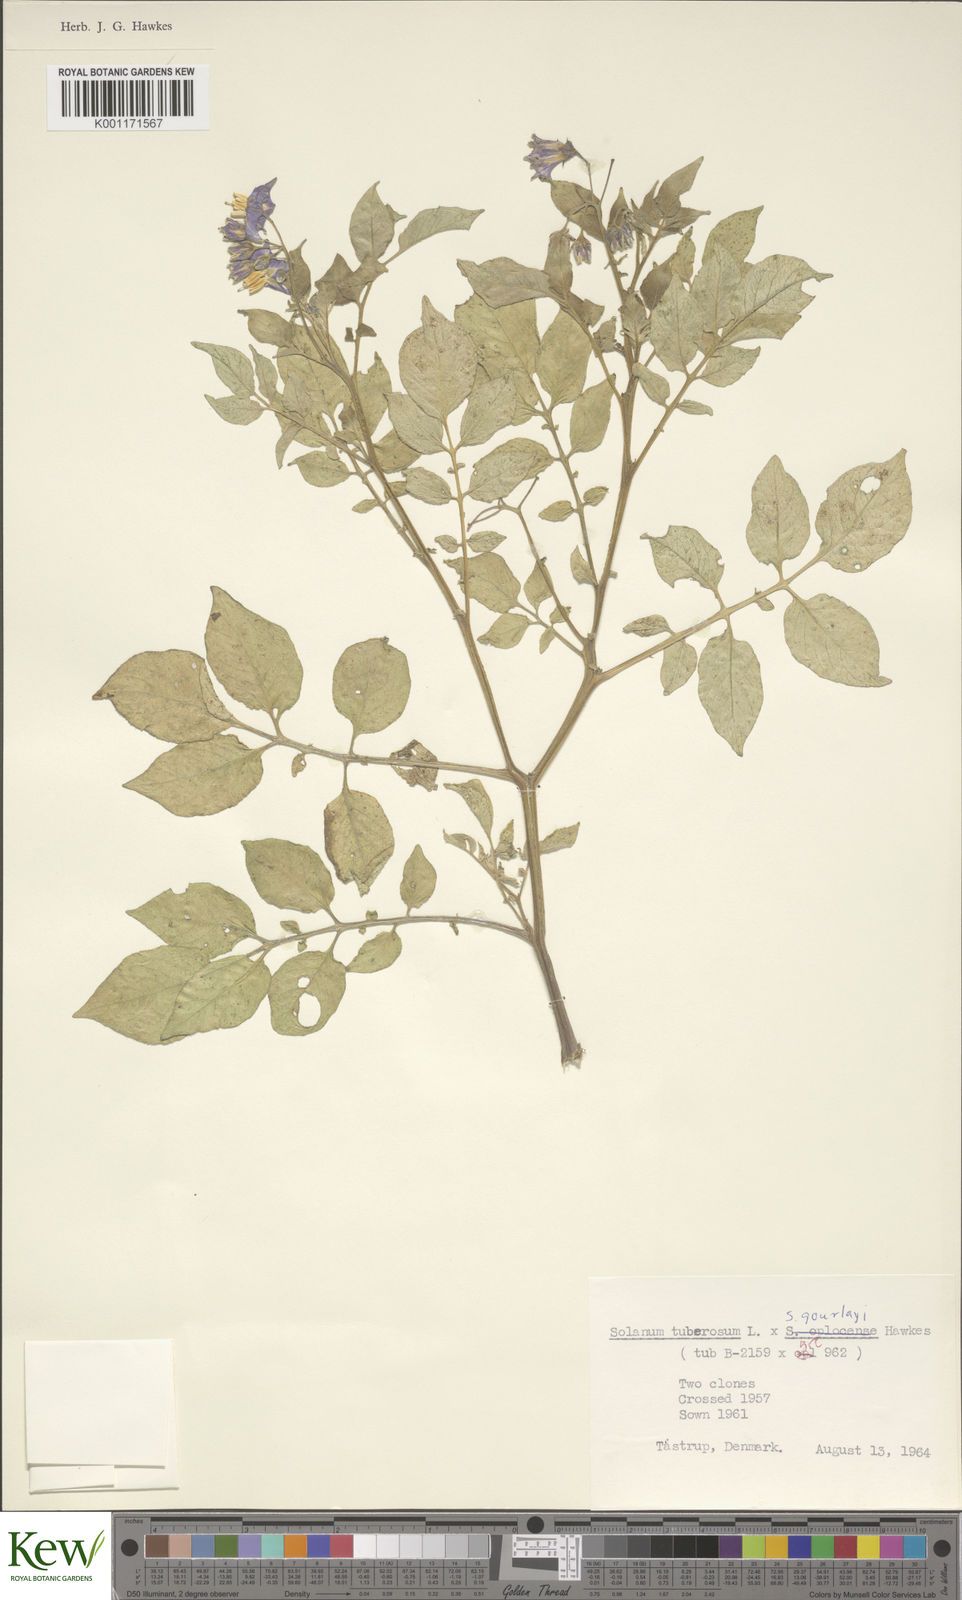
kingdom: Plantae
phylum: Tracheophyta
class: Magnoliopsida
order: Solanales
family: Solanaceae
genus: Solanum
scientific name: Solanum
